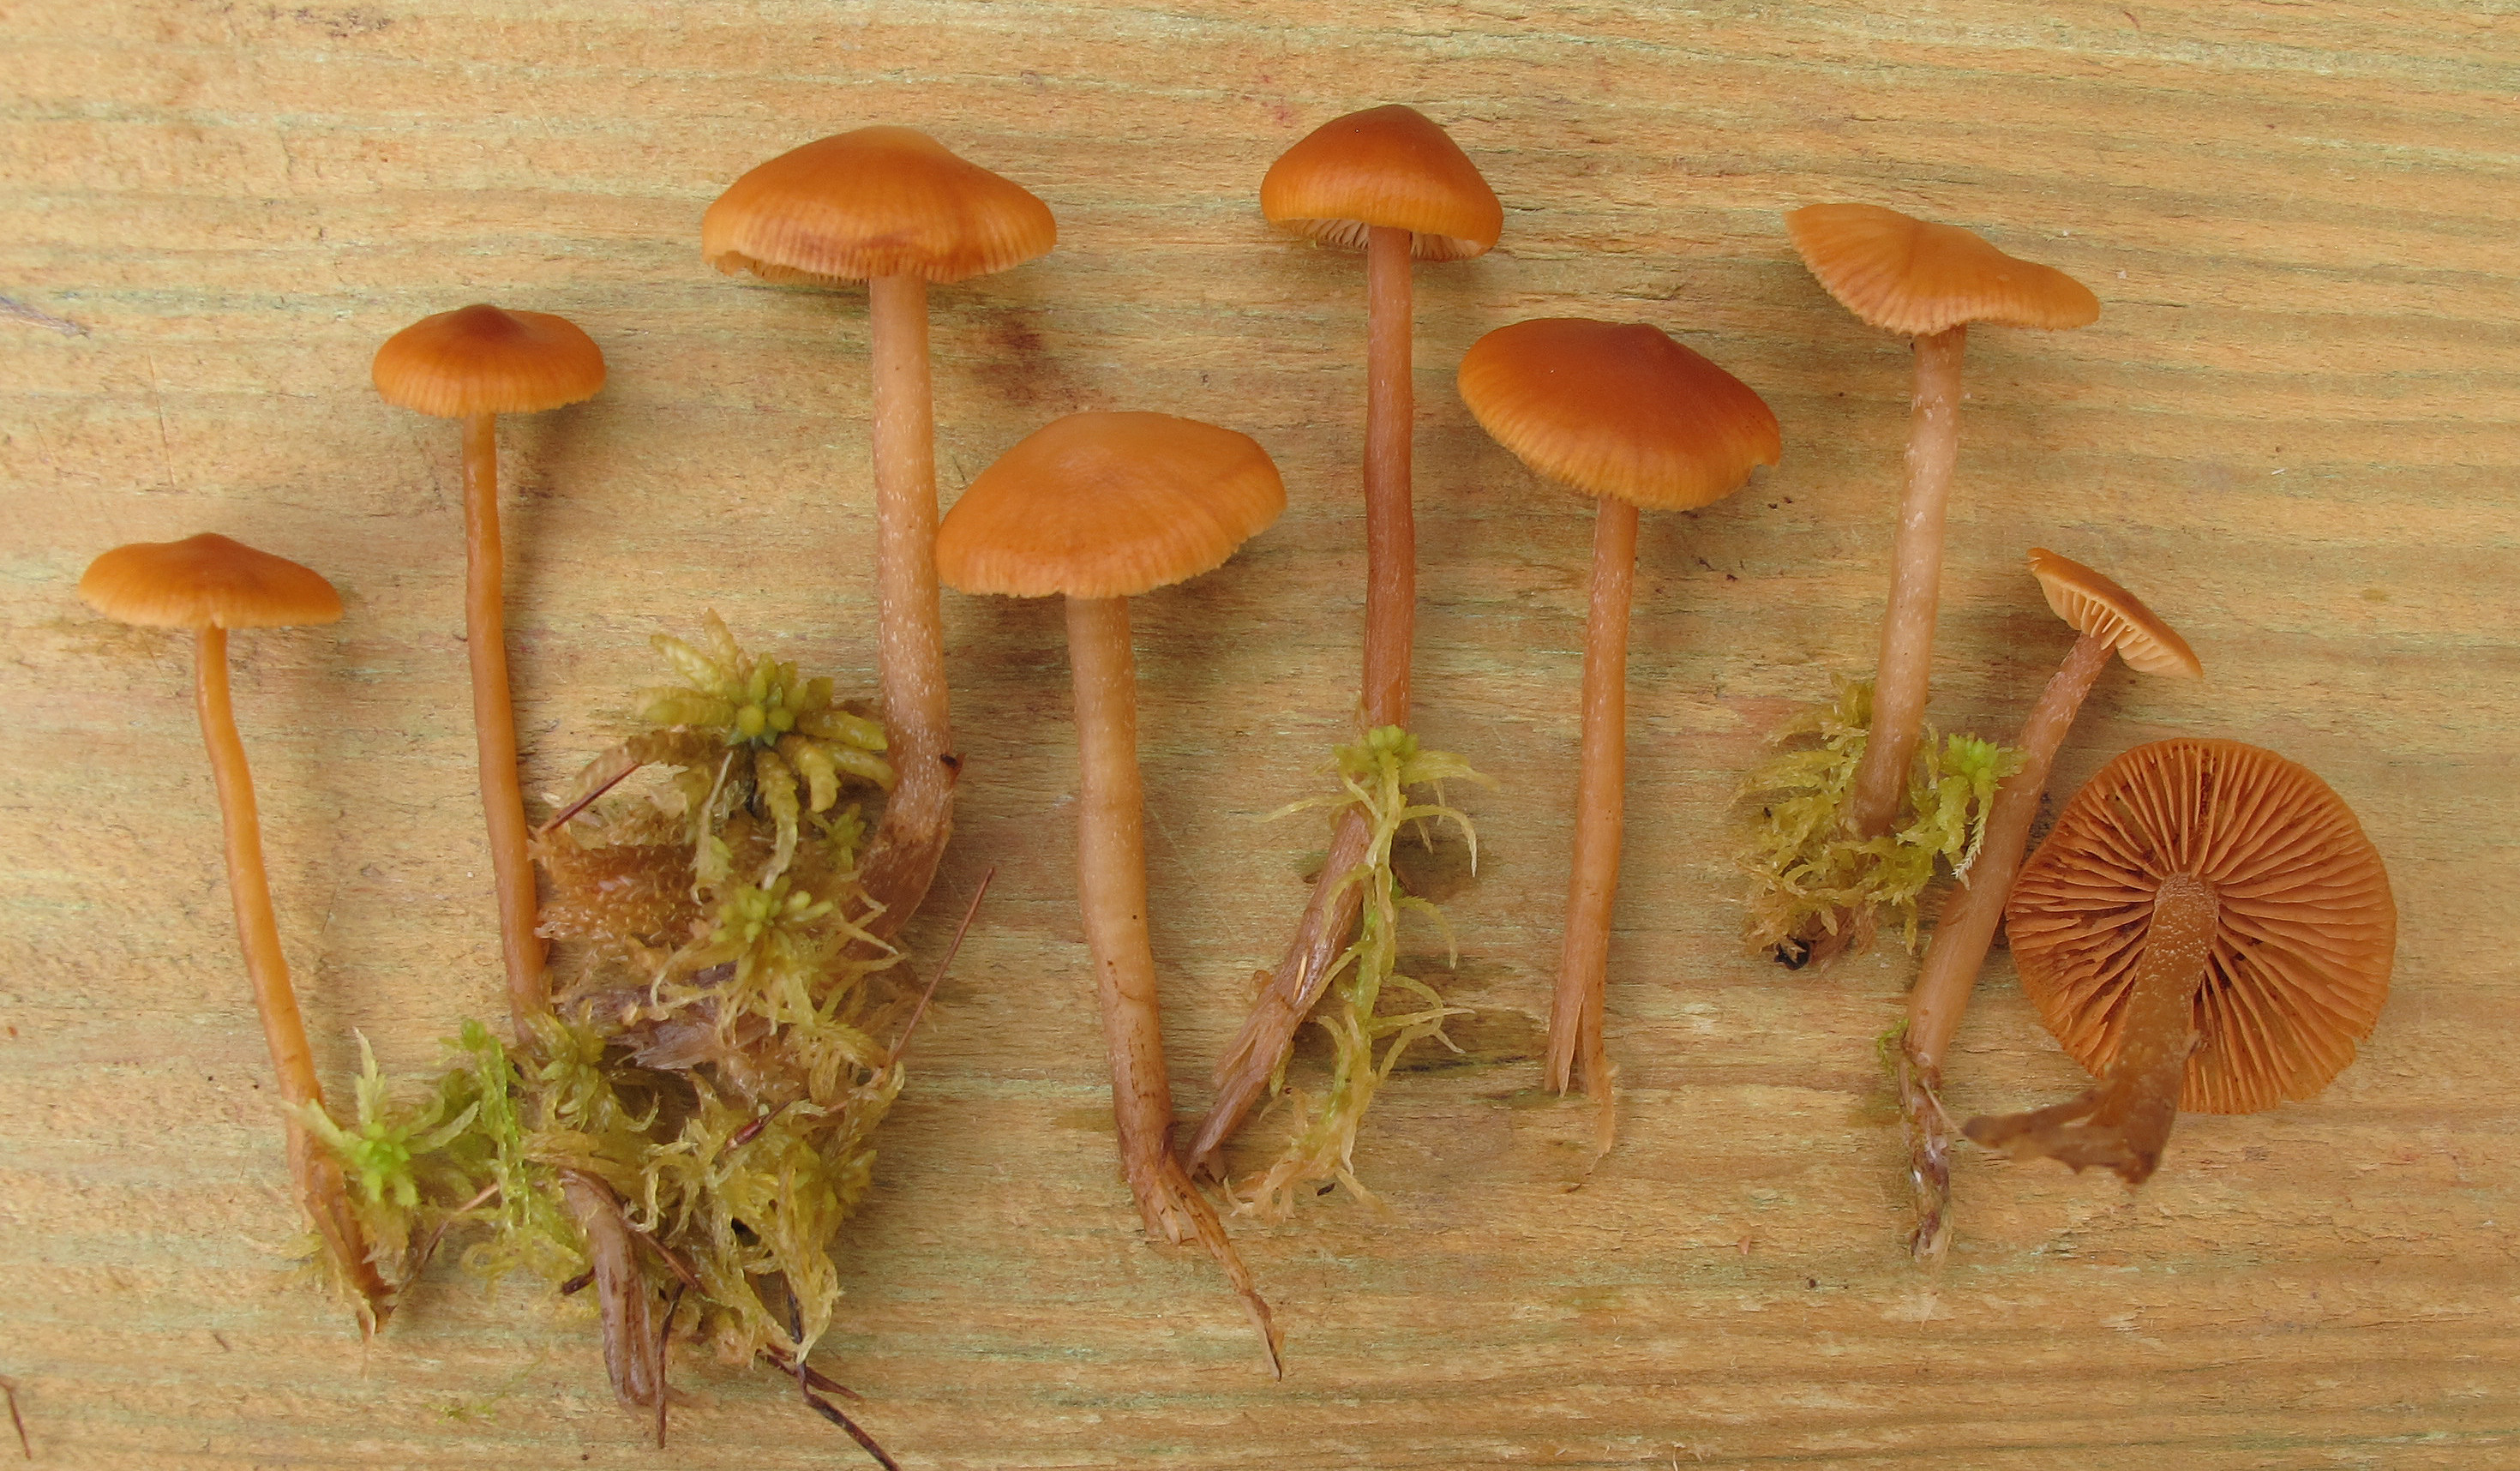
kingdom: Fungi
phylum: Basidiomycota
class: Agaricomycetes
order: Agaricales
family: Hymenogastraceae
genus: Galerina
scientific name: Galerina hybrida
